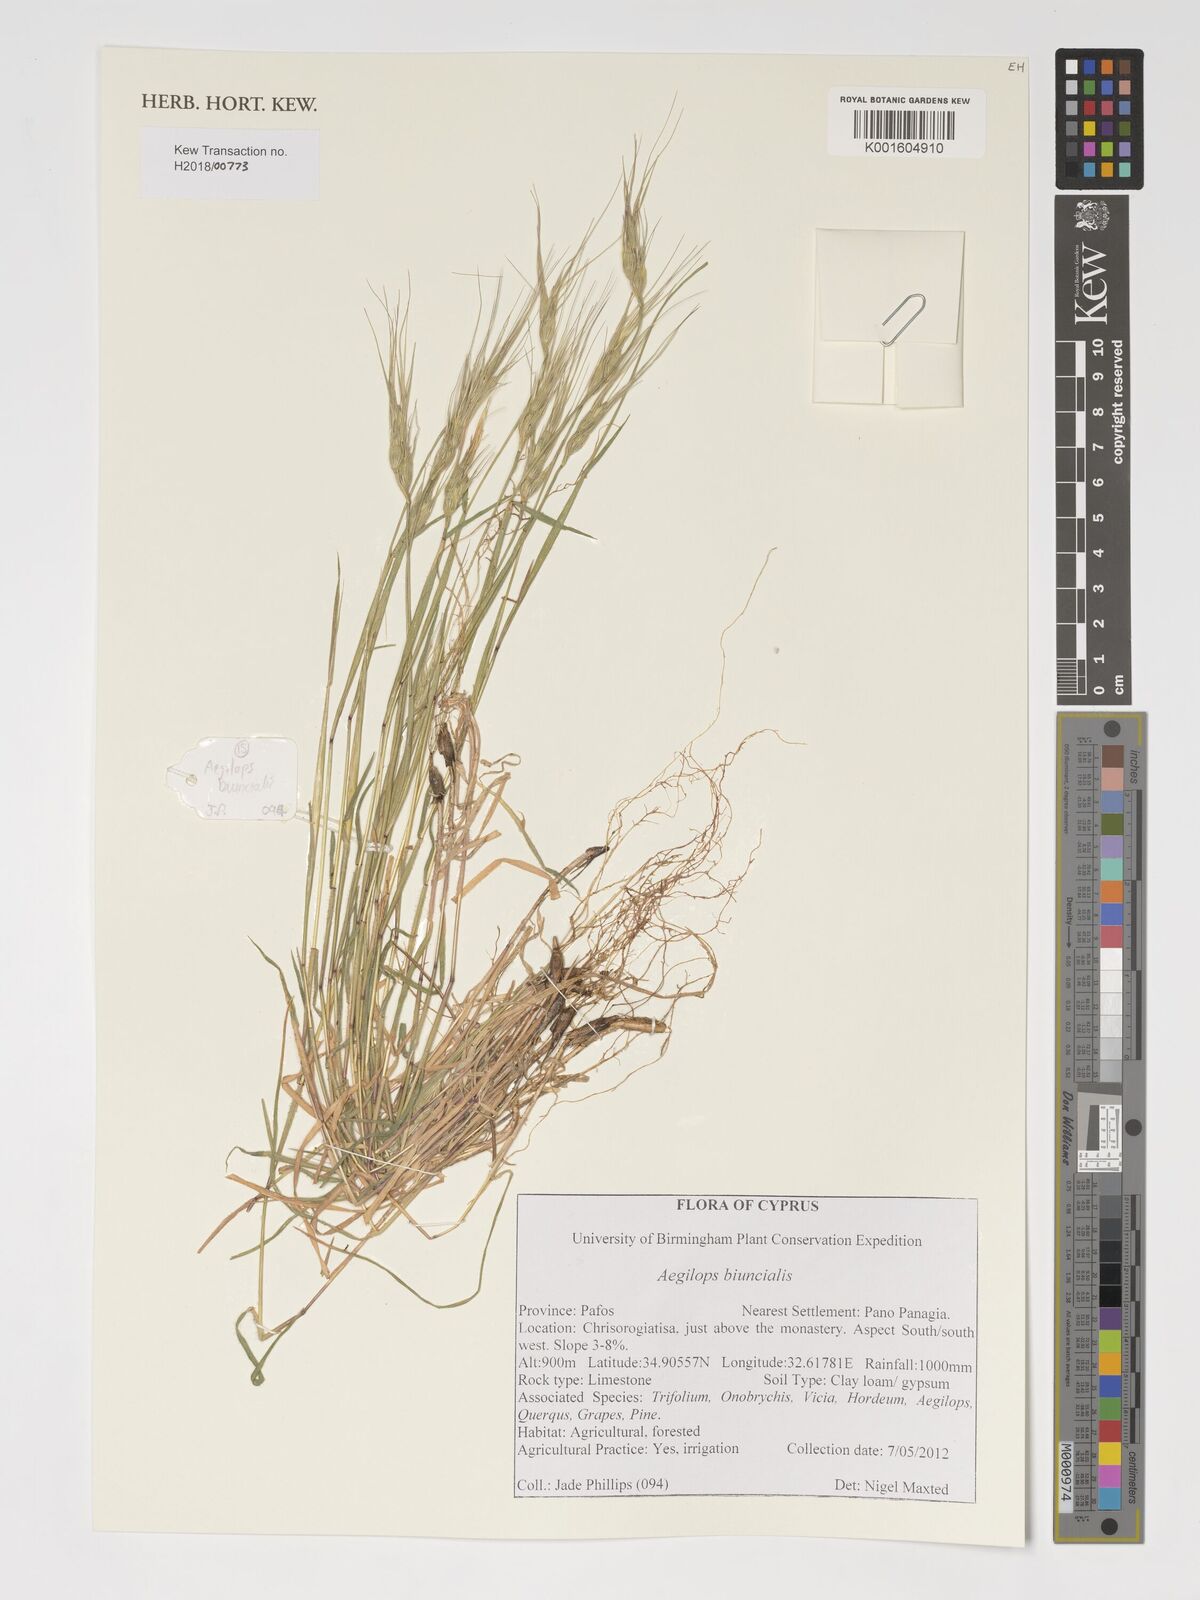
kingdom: Plantae
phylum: Tracheophyta
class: Liliopsida
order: Poales
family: Poaceae
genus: Avena
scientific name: Avena sterilis
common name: Animated oat
